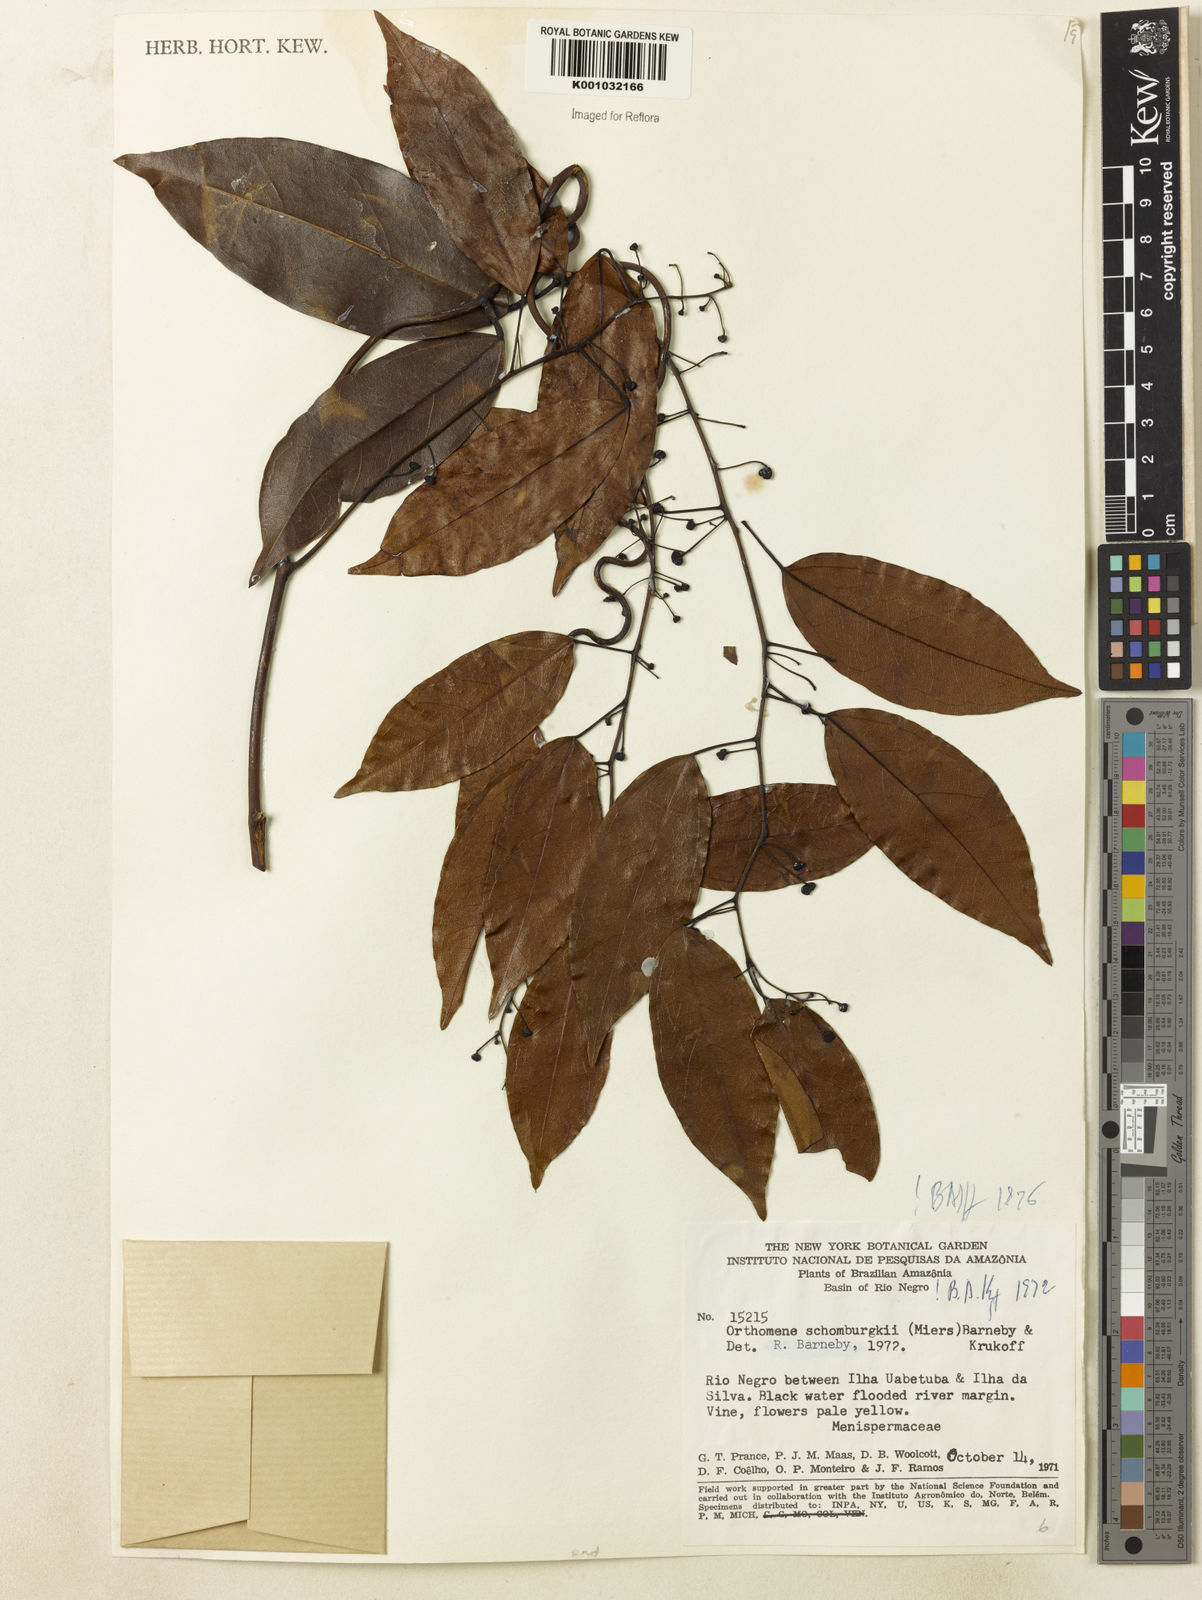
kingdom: Plantae
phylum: Tracheophyta
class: Magnoliopsida
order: Ranunculales
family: Menispermaceae
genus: Orthomene
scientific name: Orthomene schomburgkii
